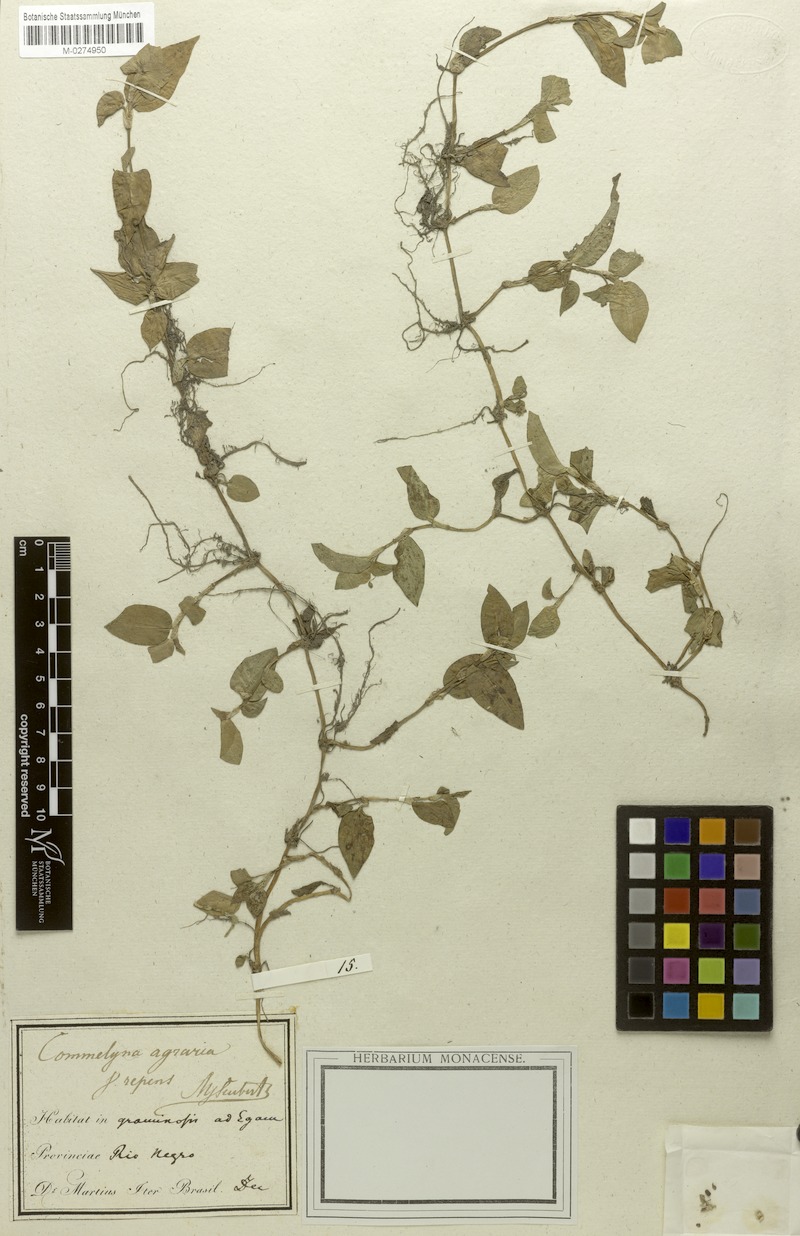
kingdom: Plantae
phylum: Tracheophyta
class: Liliopsida
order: Commelinales
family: Commelinaceae
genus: Commelina
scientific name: Commelina diffusa
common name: Climbing dayflower
